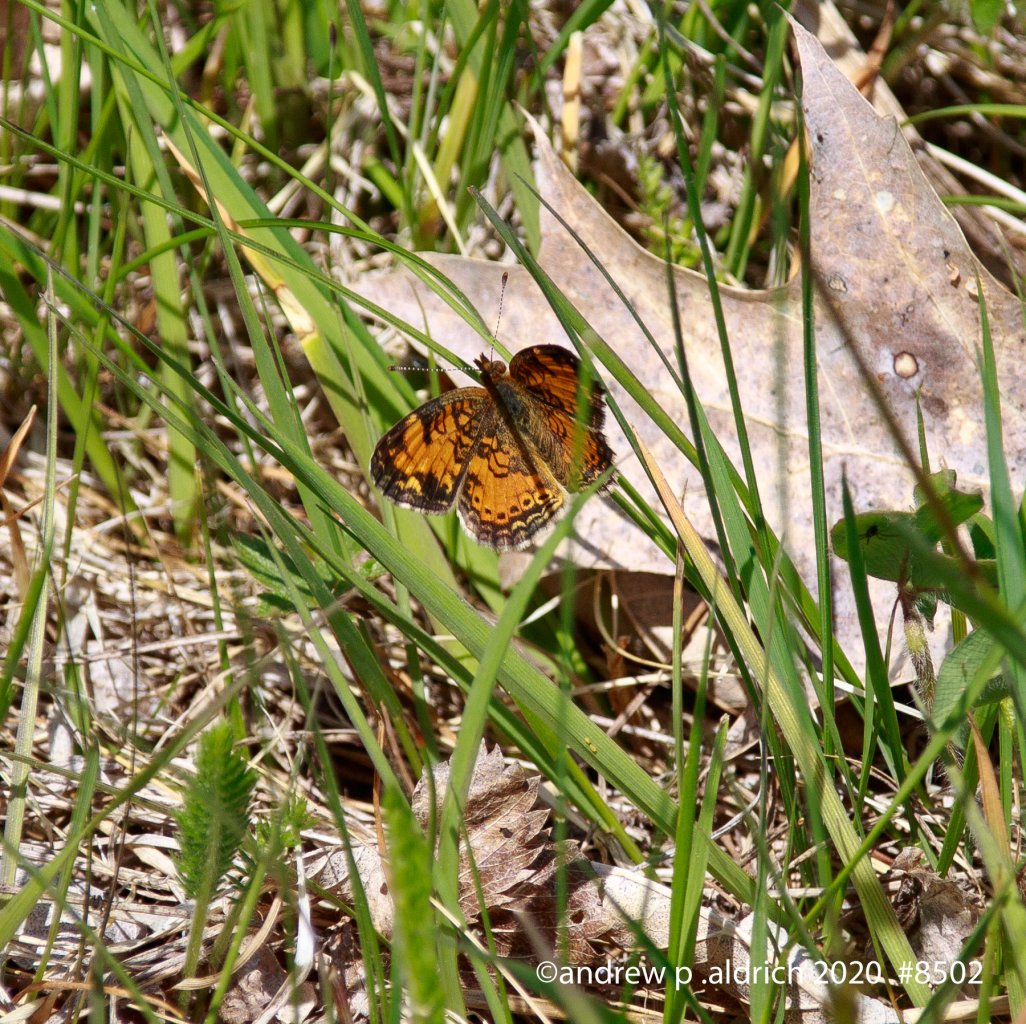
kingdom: Animalia
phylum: Arthropoda
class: Insecta
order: Lepidoptera
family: Nymphalidae
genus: Phyciodes
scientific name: Phyciodes
